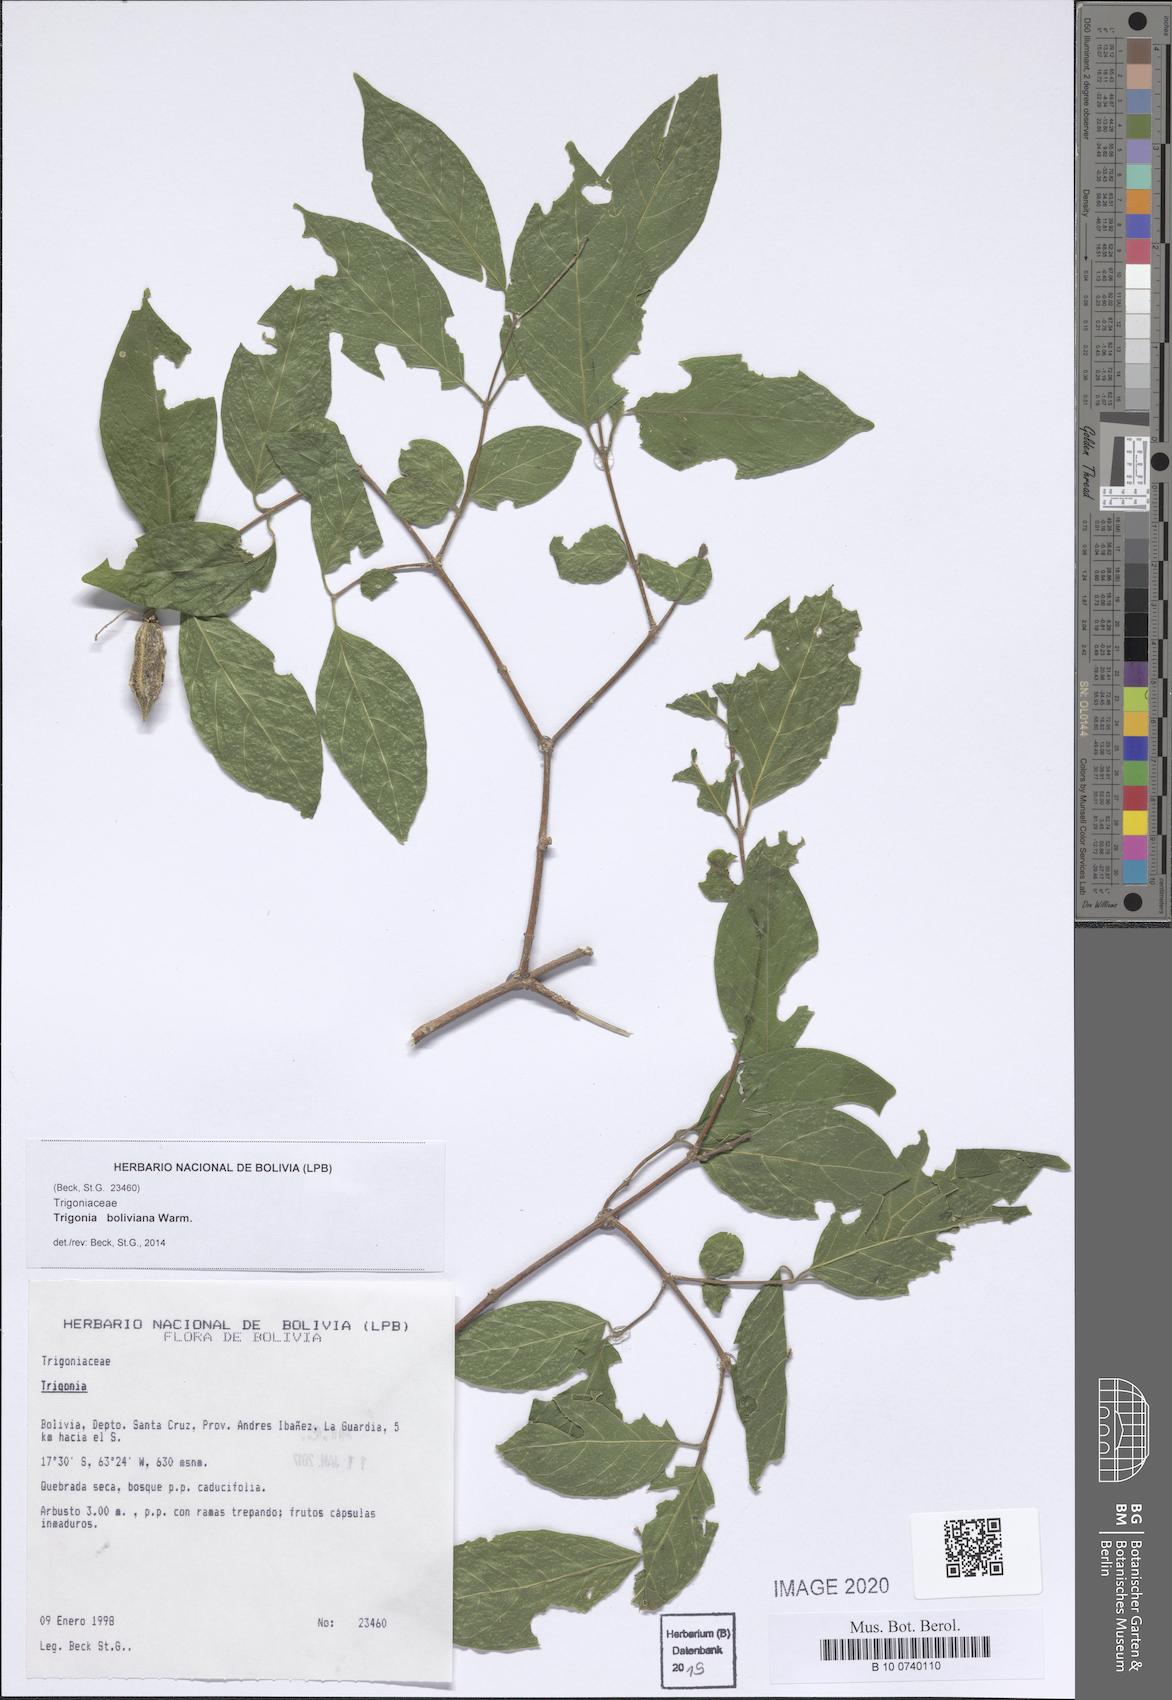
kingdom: Plantae
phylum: Tracheophyta
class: Magnoliopsida
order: Malpighiales
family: Trigoniaceae
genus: Trigonia
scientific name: Trigonia boliviana
